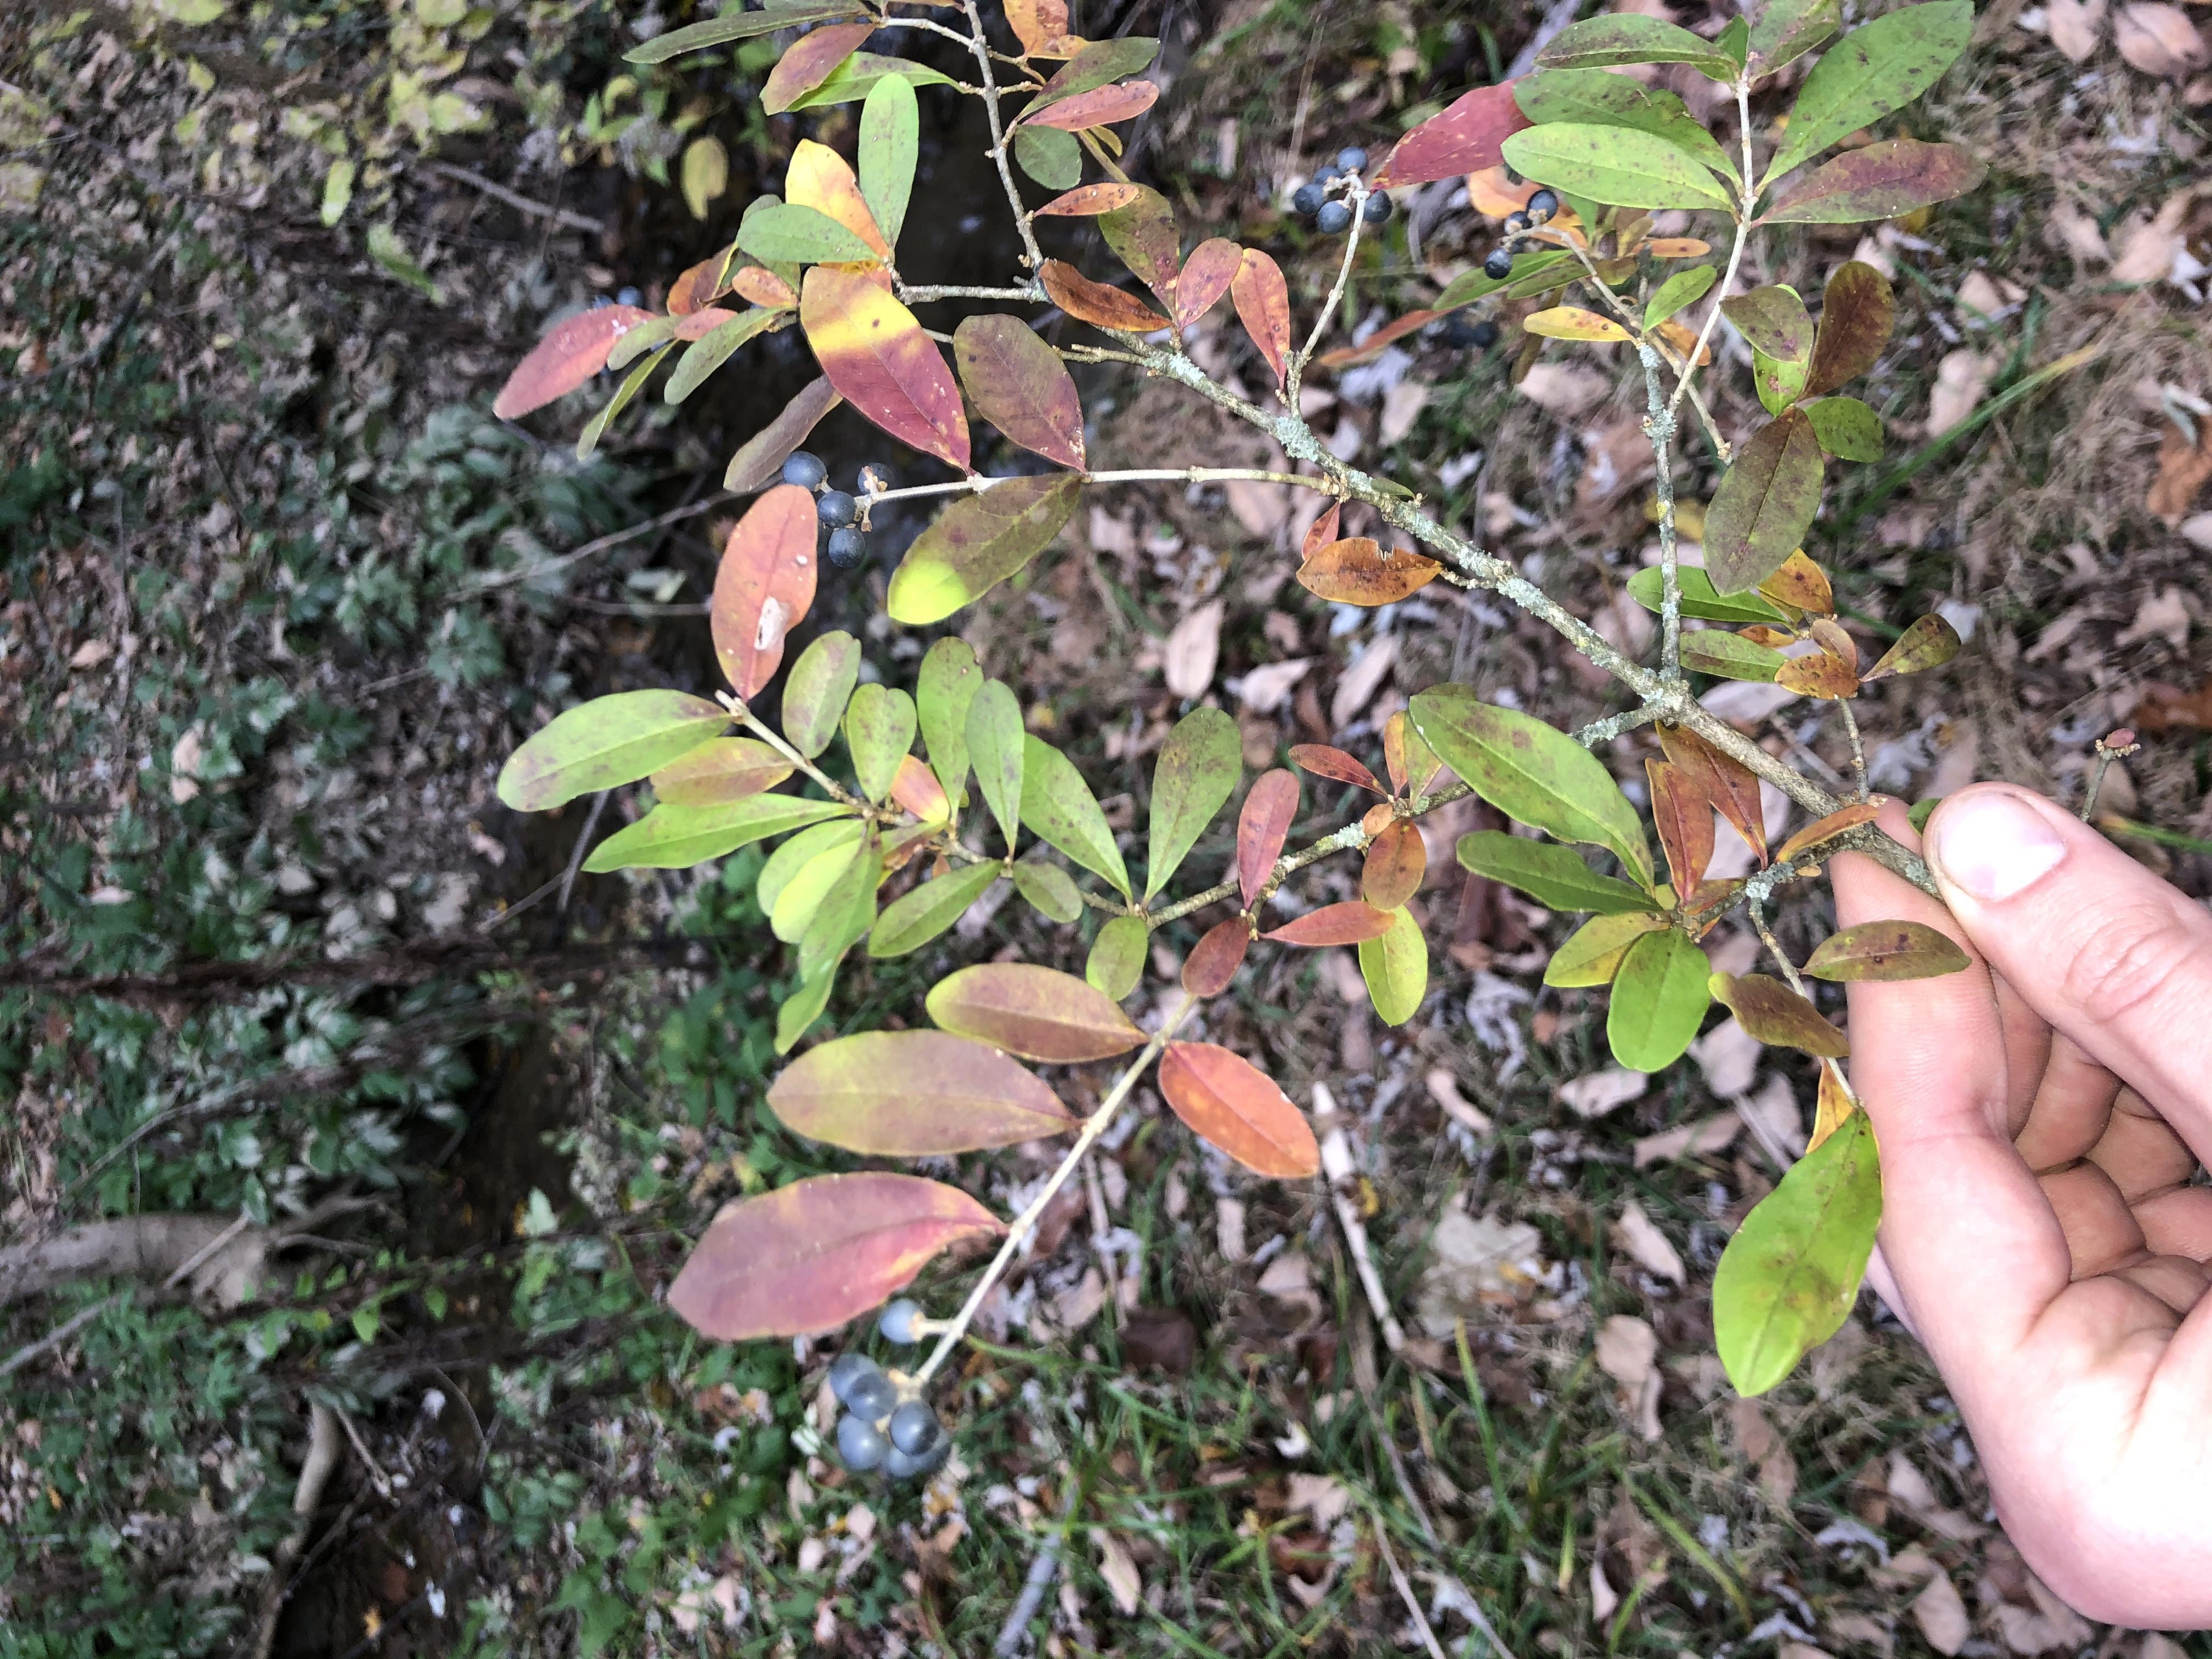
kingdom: Plantae
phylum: Tracheophyta
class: Magnoliopsida
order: Lamiales
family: Oleaceae
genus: Ligustrum
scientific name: Ligustrum obtusifolium
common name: Common Privet
